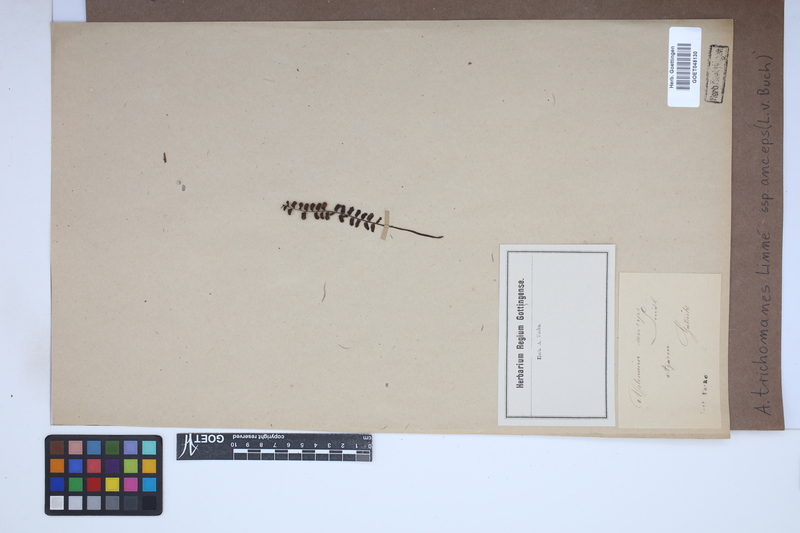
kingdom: Plantae
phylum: Tracheophyta
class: Polypodiopsida
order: Polypodiales
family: Aspleniaceae
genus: Asplenium
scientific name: Asplenium resiliens
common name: Blackstem spleenwort
